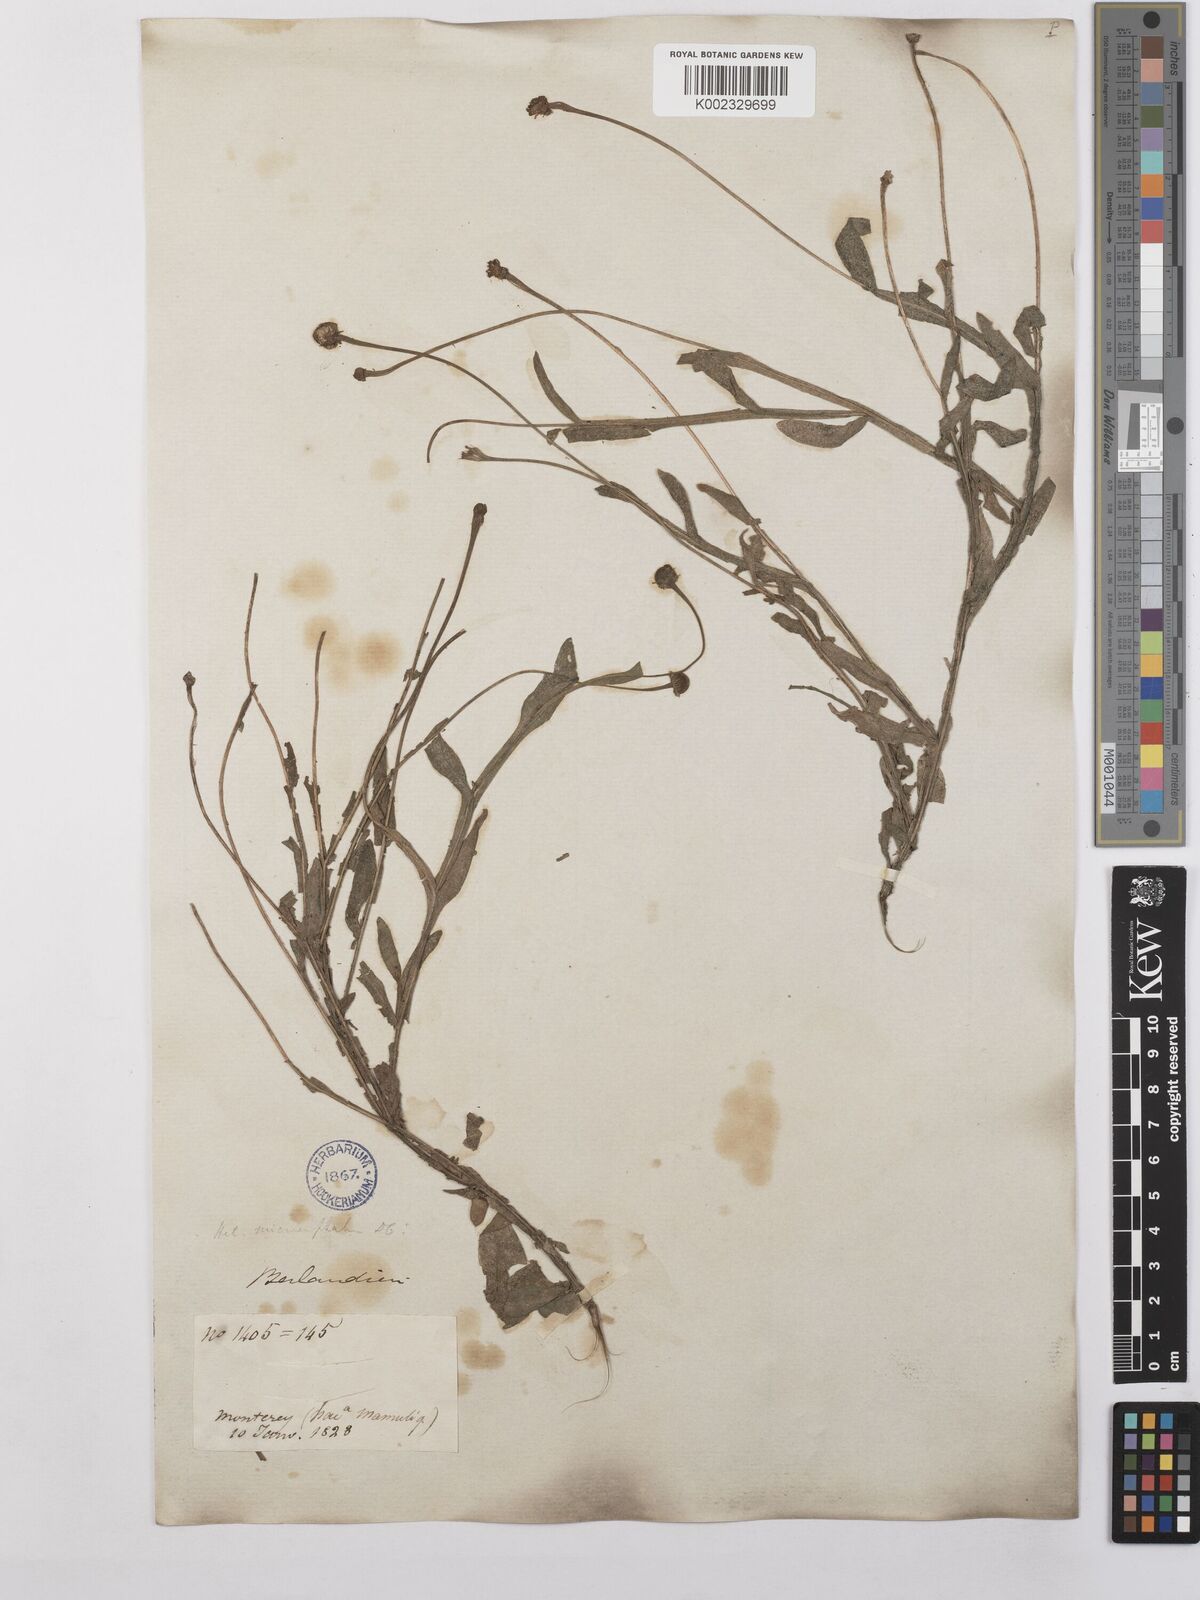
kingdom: Plantae
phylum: Tracheophyta
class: Magnoliopsida
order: Asterales
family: Asteraceae
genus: Helenium
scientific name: Helenium microcephalum
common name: Smallhead sneezeweed
